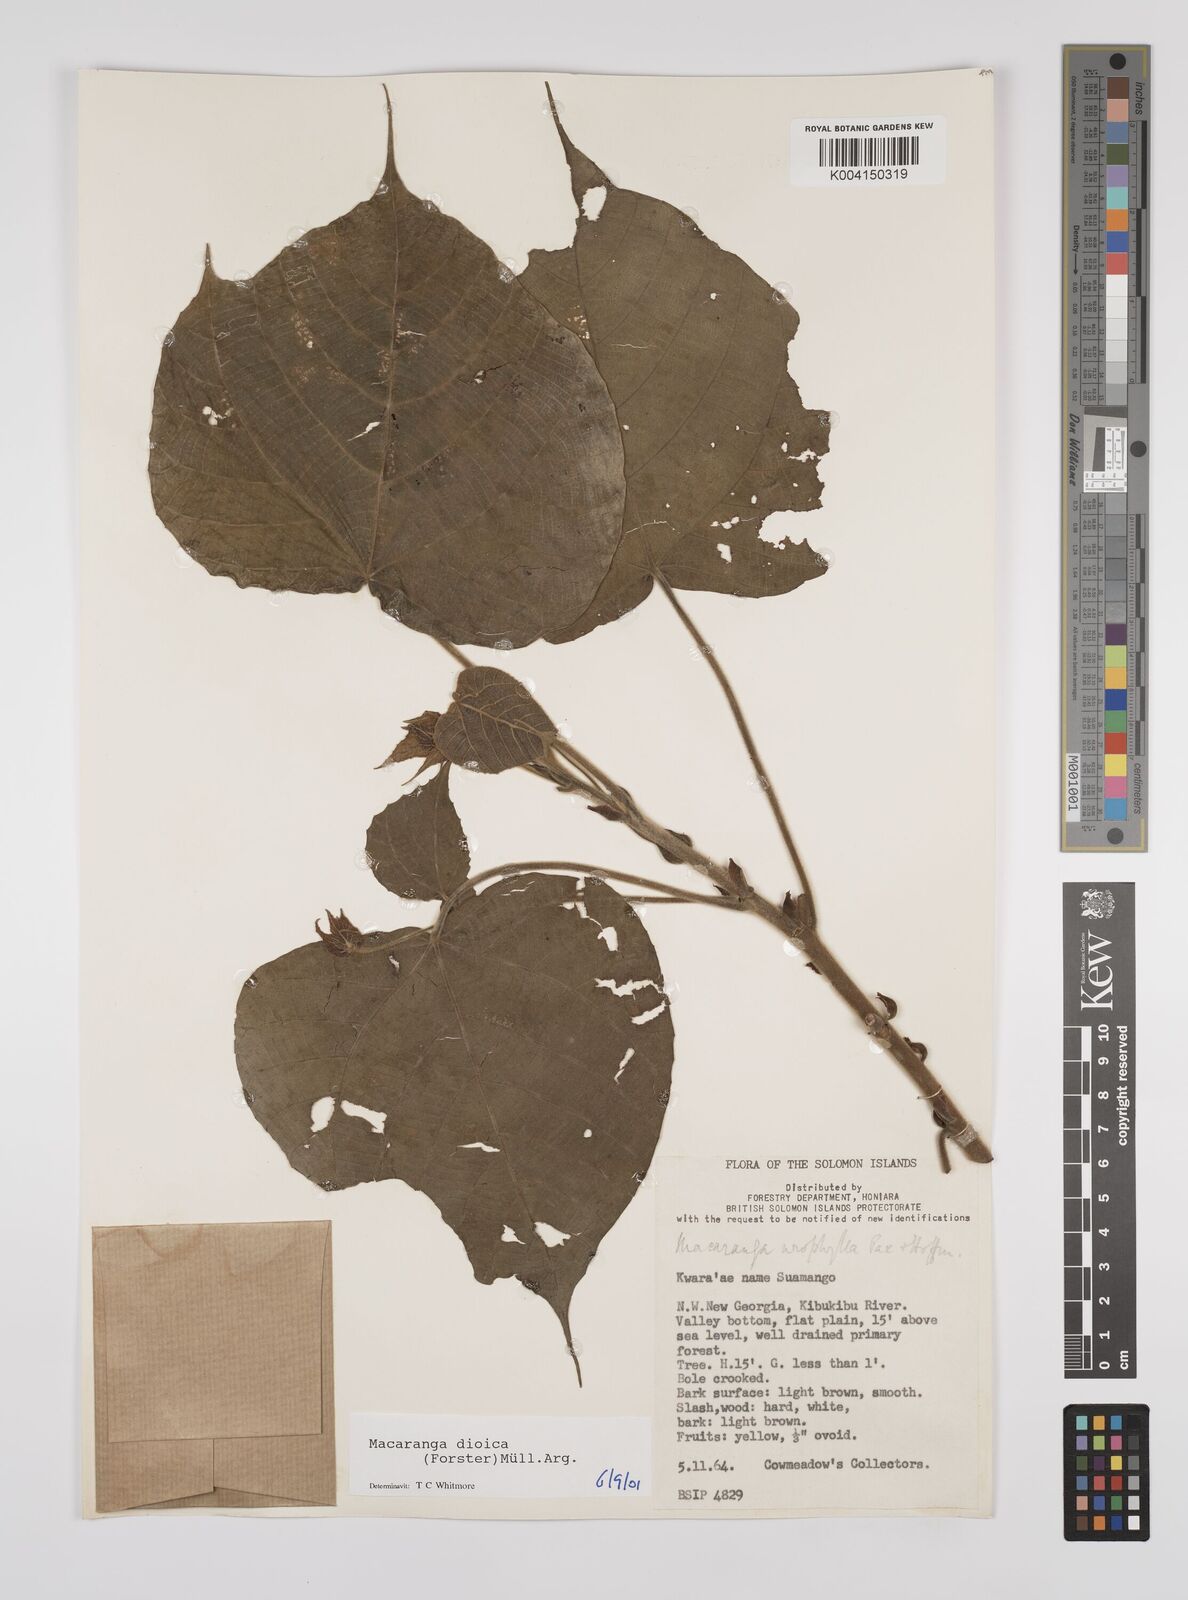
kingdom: Plantae
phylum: Tracheophyta
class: Magnoliopsida
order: Malpighiales
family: Euphorbiaceae
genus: Macaranga
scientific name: Macaranga dioica
